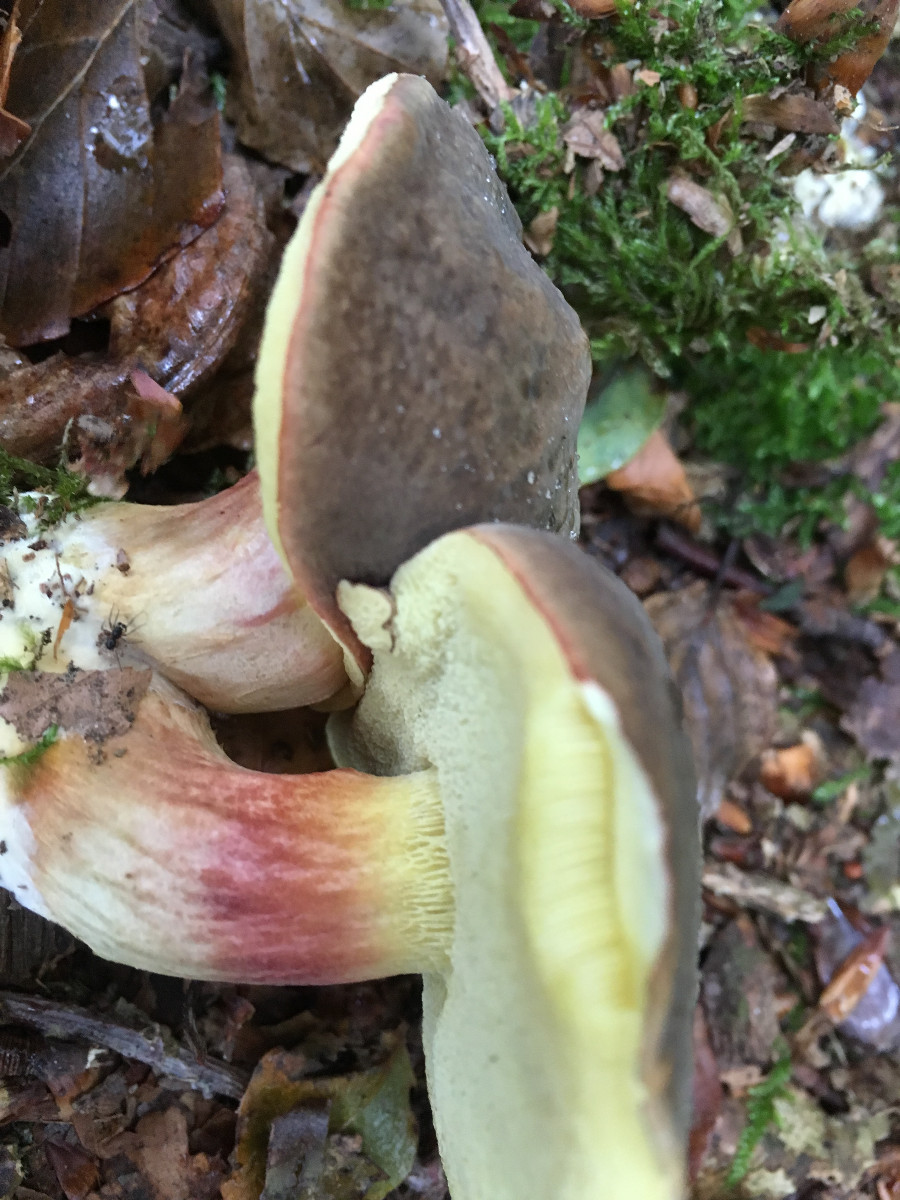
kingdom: Fungi
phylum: Basidiomycota
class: Agaricomycetes
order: Boletales
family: Boletaceae
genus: Xerocomellus
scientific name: Xerocomellus pruinatus
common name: dugget rørhat
